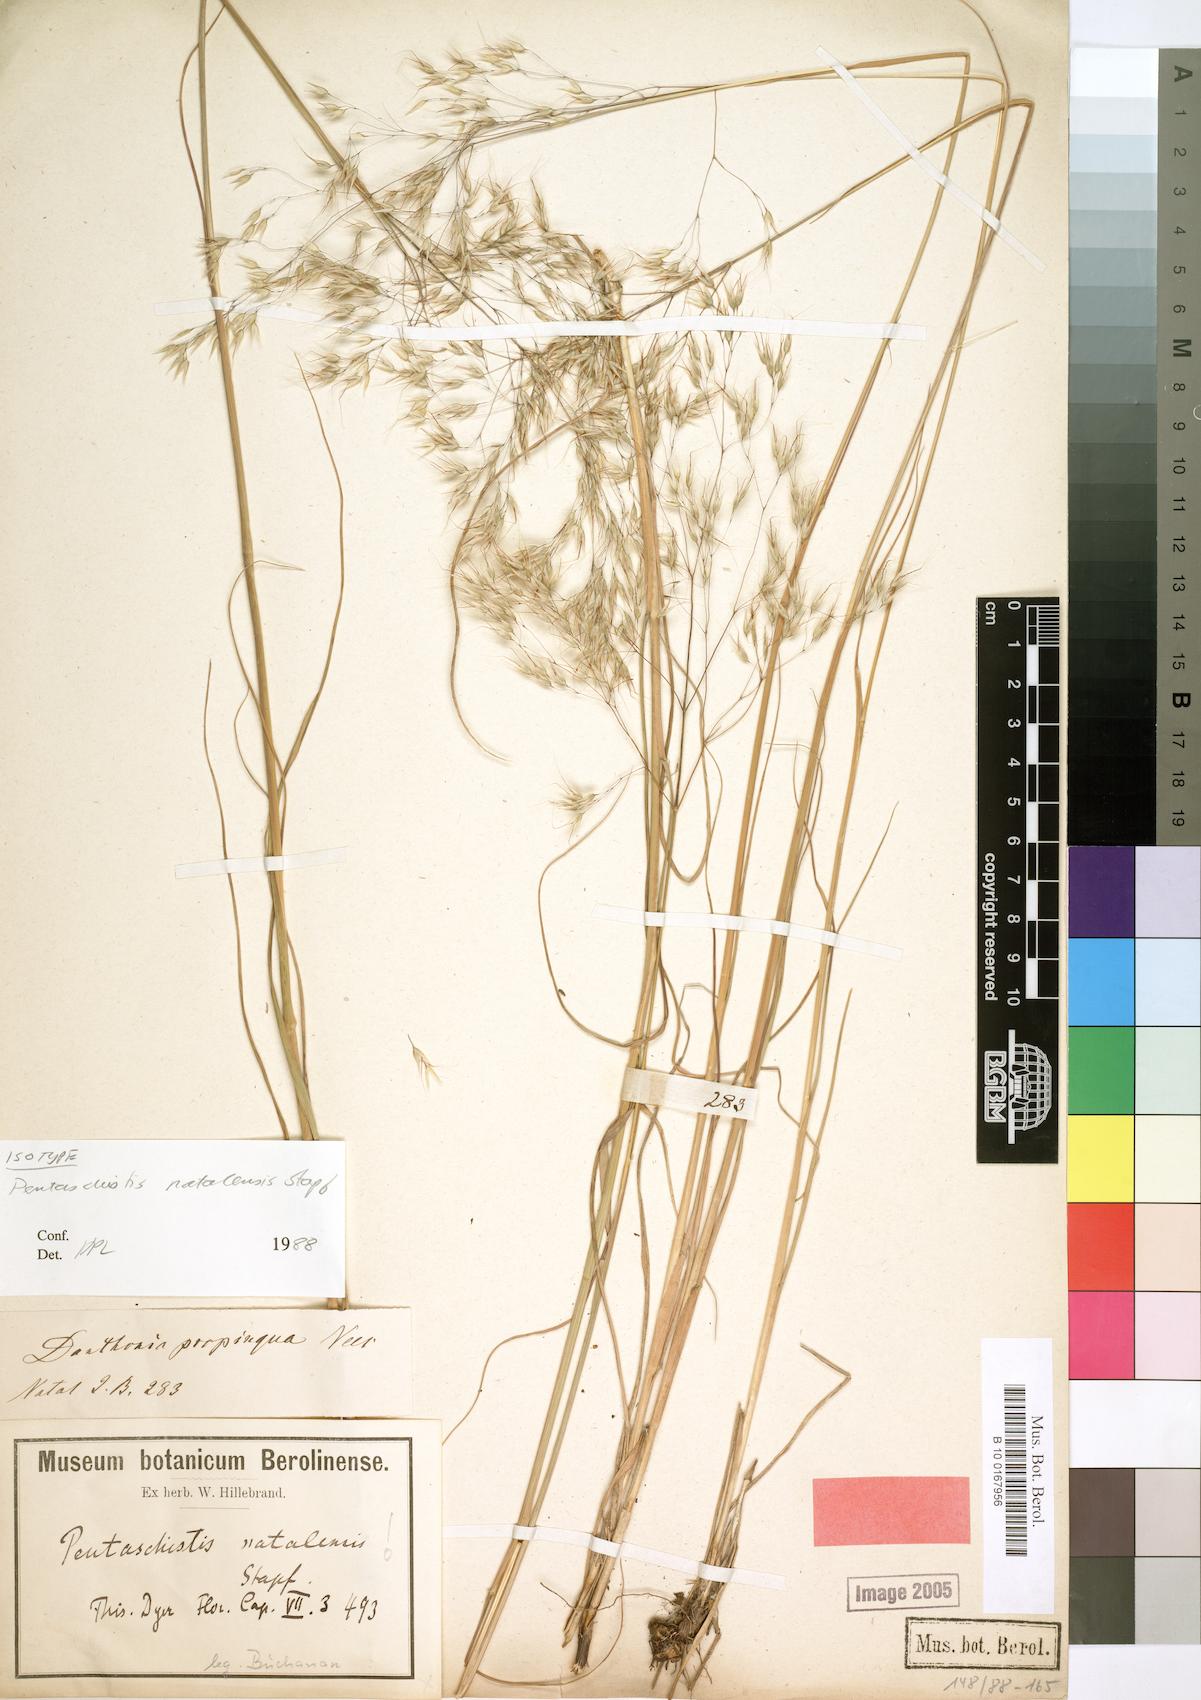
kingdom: Plantae
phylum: Tracheophyta
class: Liliopsida
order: Poales
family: Poaceae
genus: Pentameris
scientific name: Pentameris natalensis
